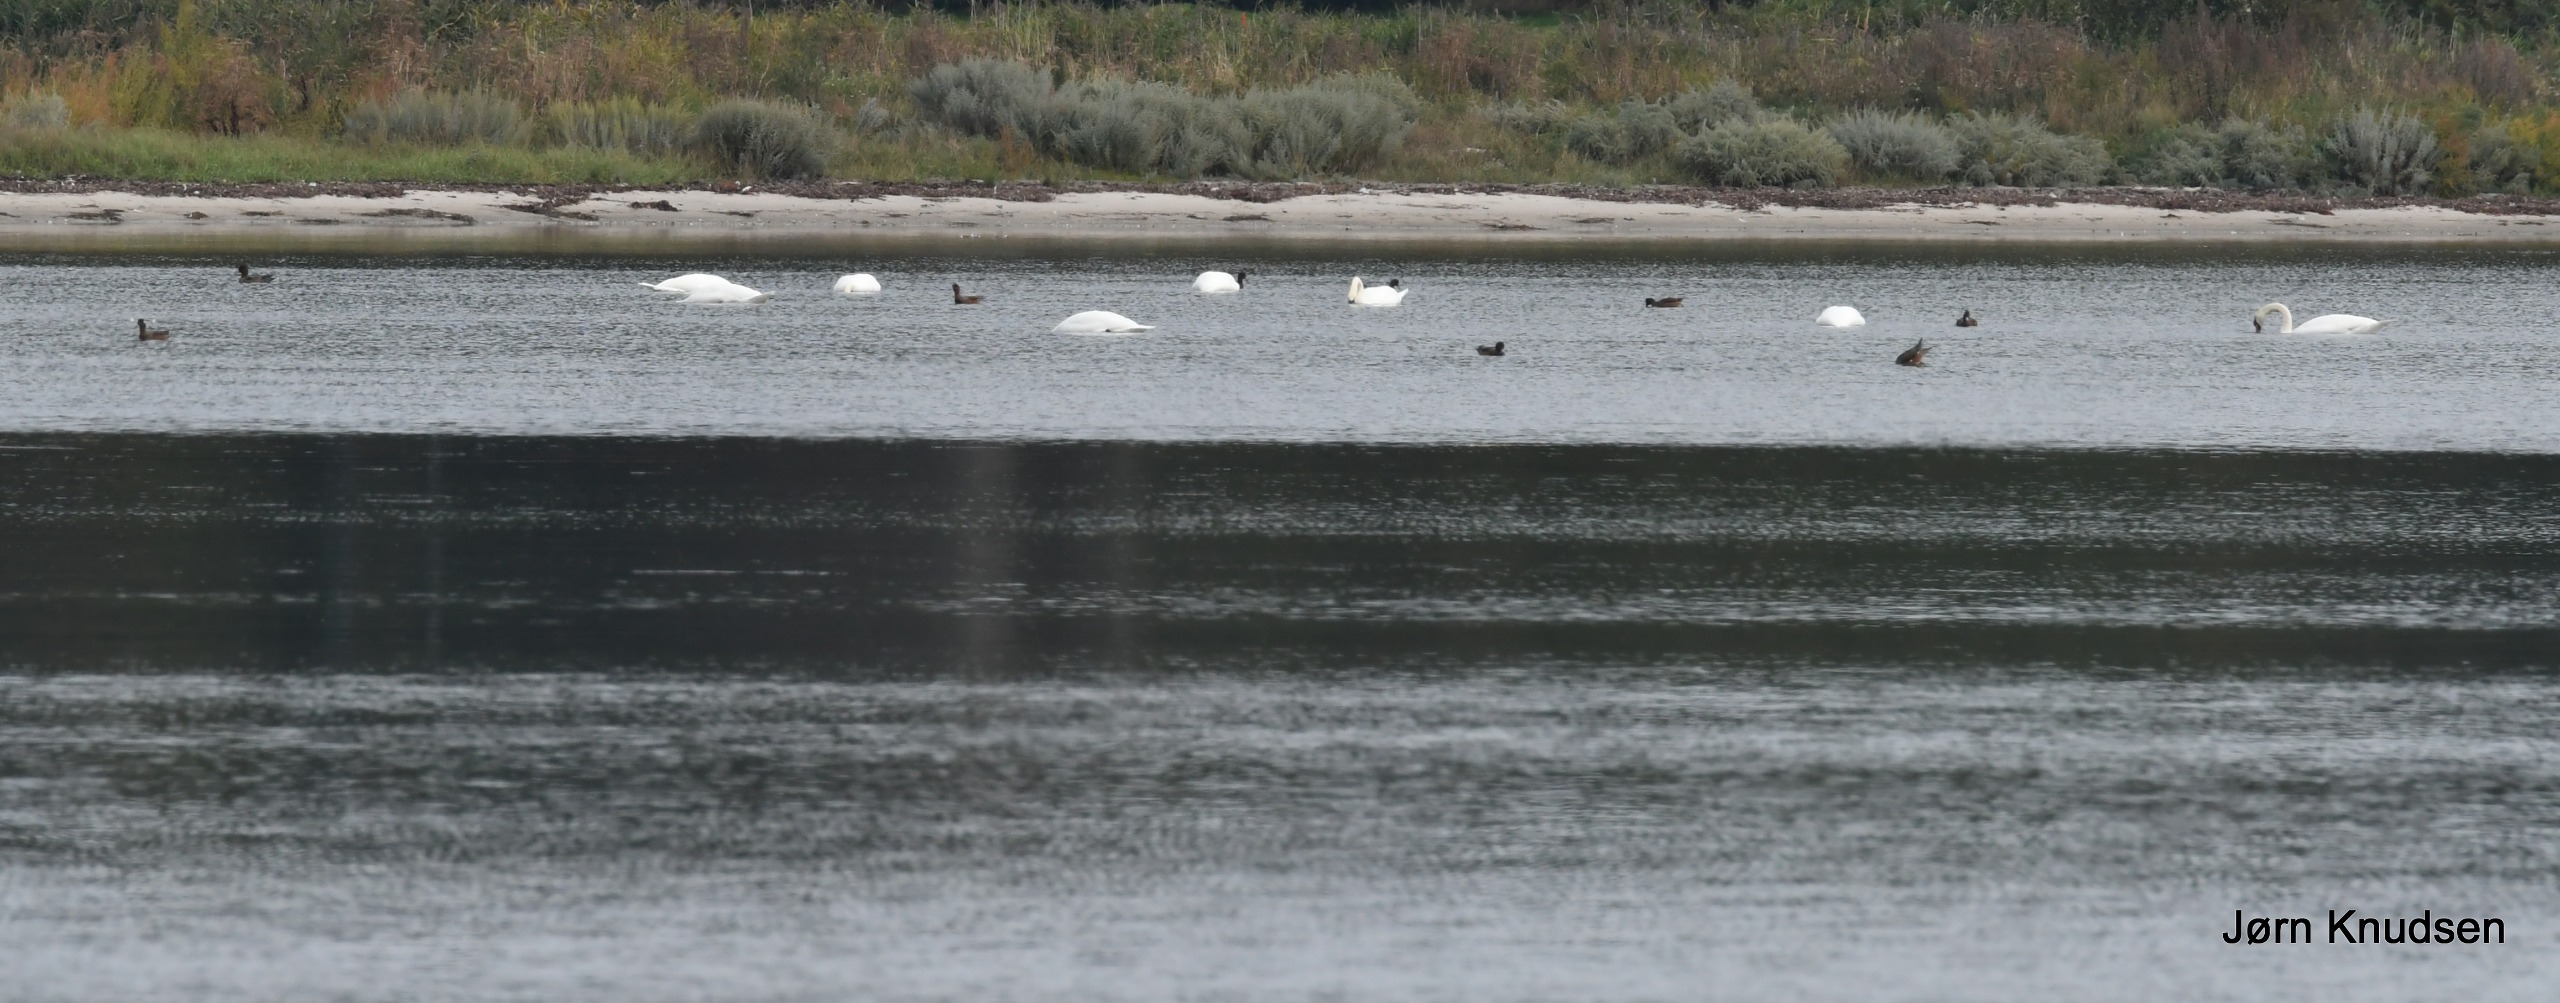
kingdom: Animalia
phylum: Chordata
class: Aves
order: Anseriformes
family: Anatidae
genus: Cygnus
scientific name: Cygnus olor
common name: Knopsvane
